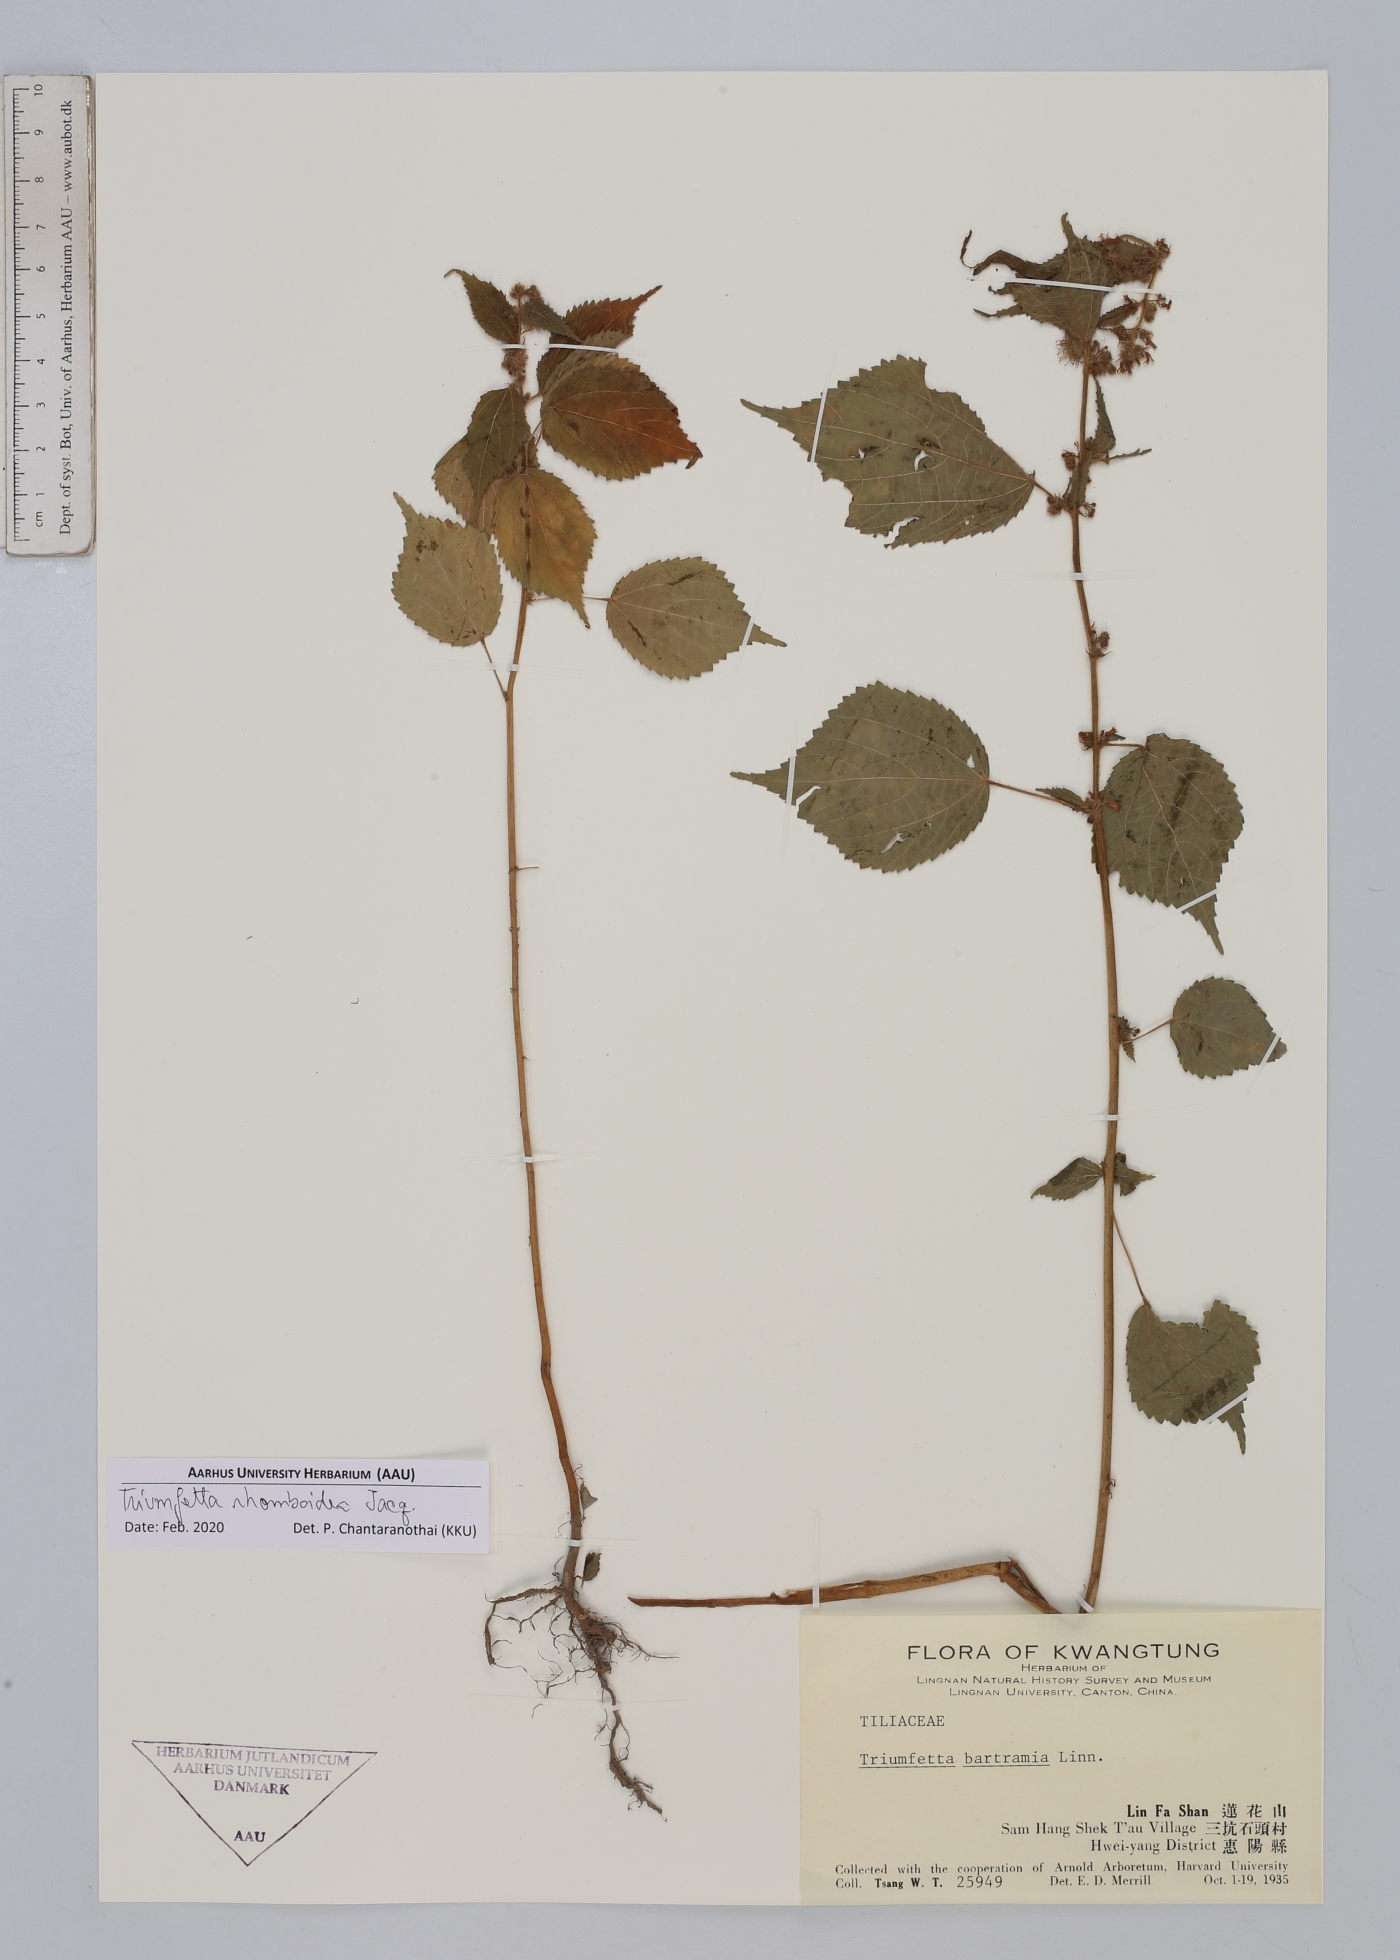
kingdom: Plantae
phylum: Tracheophyta
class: Magnoliopsida
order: Malvales
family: Malvaceae
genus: Triumfetta
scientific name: Triumfetta rhomboidea
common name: Diamond burbark
